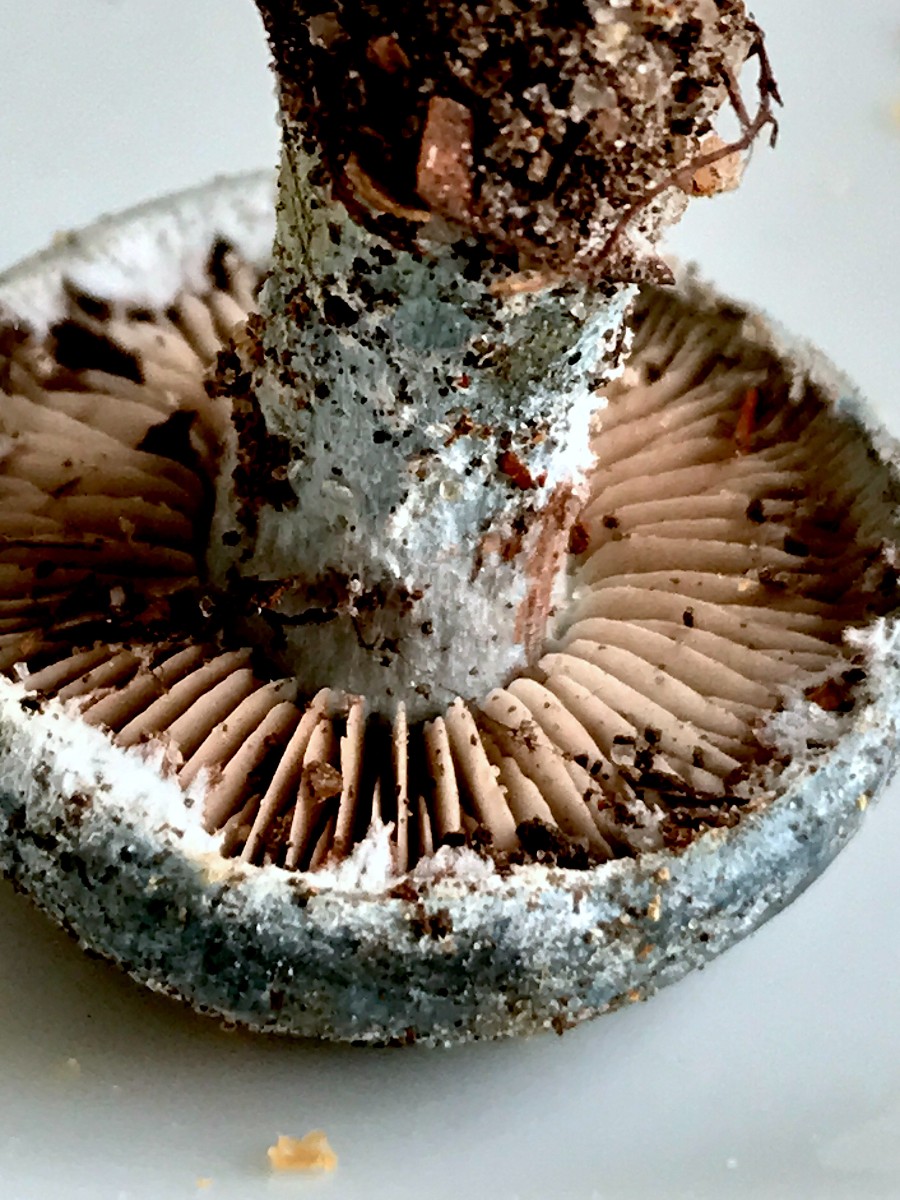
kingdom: Fungi
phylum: Basidiomycota
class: Agaricomycetes
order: Agaricales
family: Strophariaceae
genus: Stropharia
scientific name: Stropharia aeruginosa
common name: spanskgrøn bredblad
